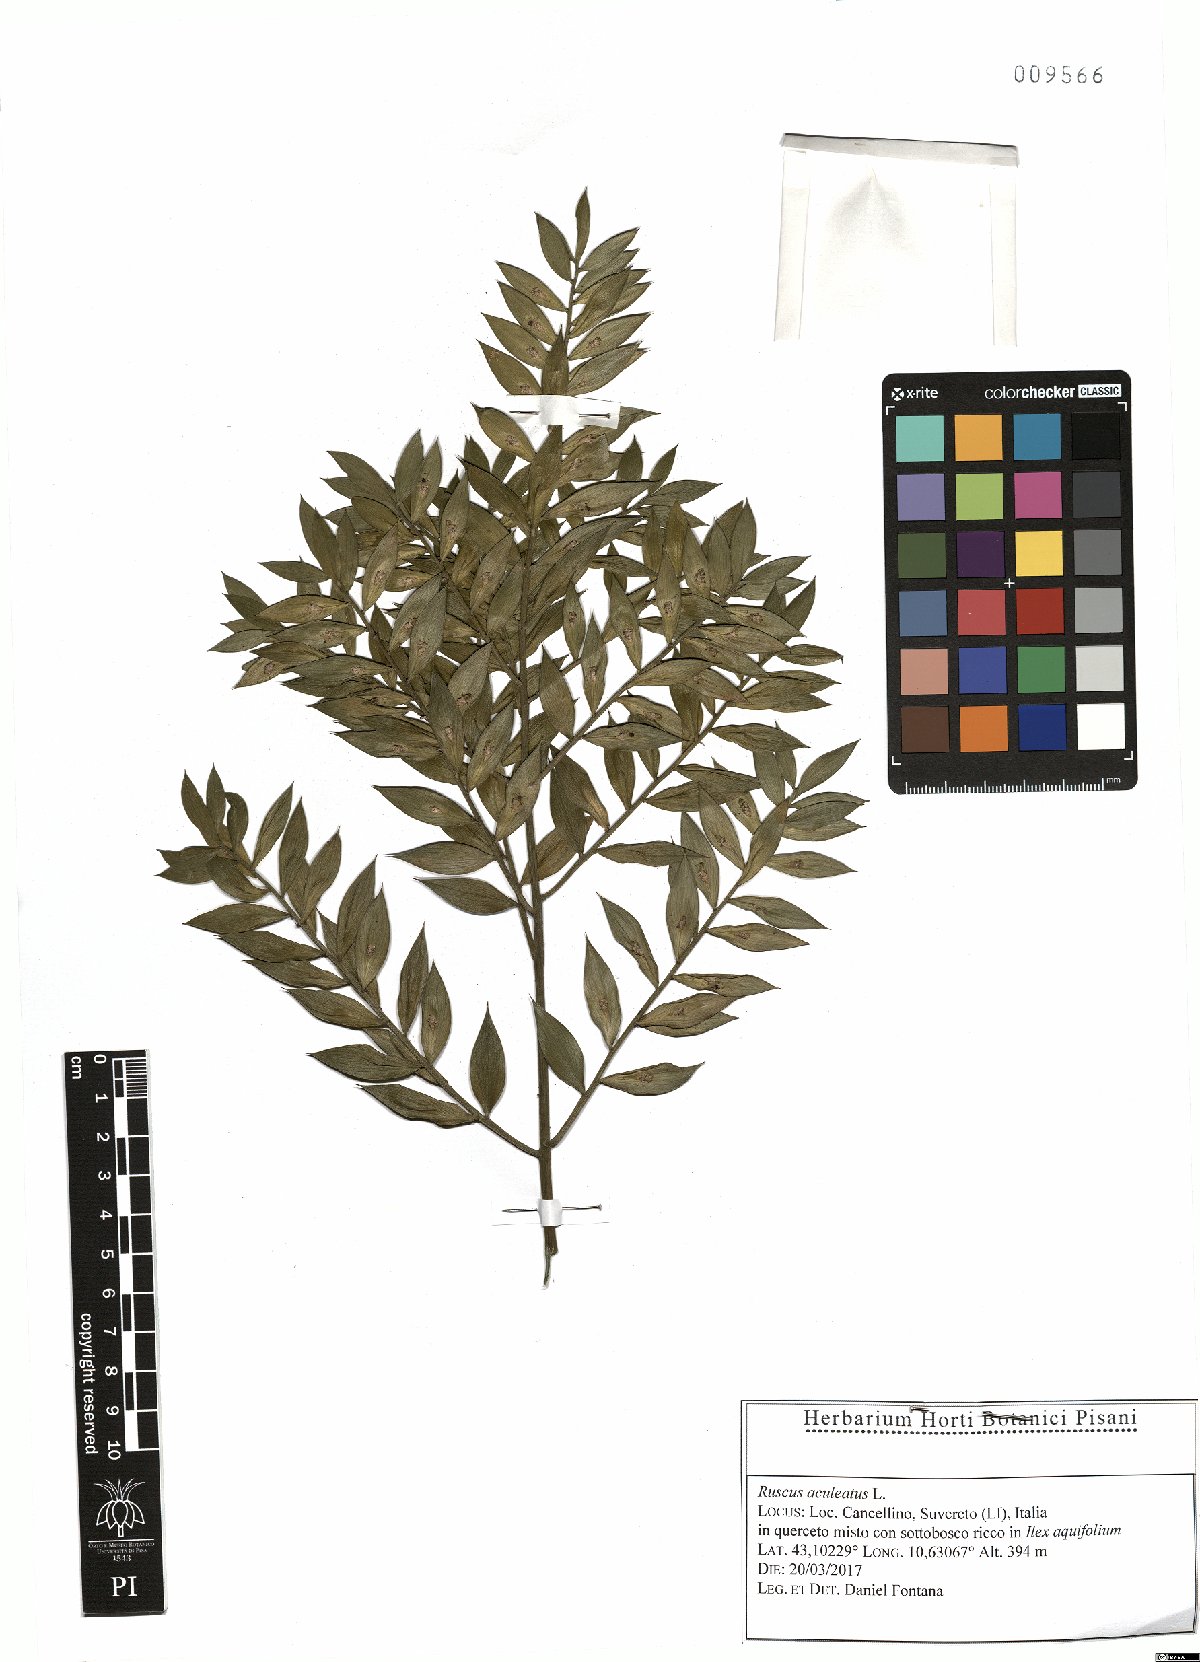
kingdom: Plantae
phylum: Tracheophyta
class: Liliopsida
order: Asparagales
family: Asparagaceae
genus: Ruscus
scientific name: Ruscus aculeatus
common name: Butcher's-broom
